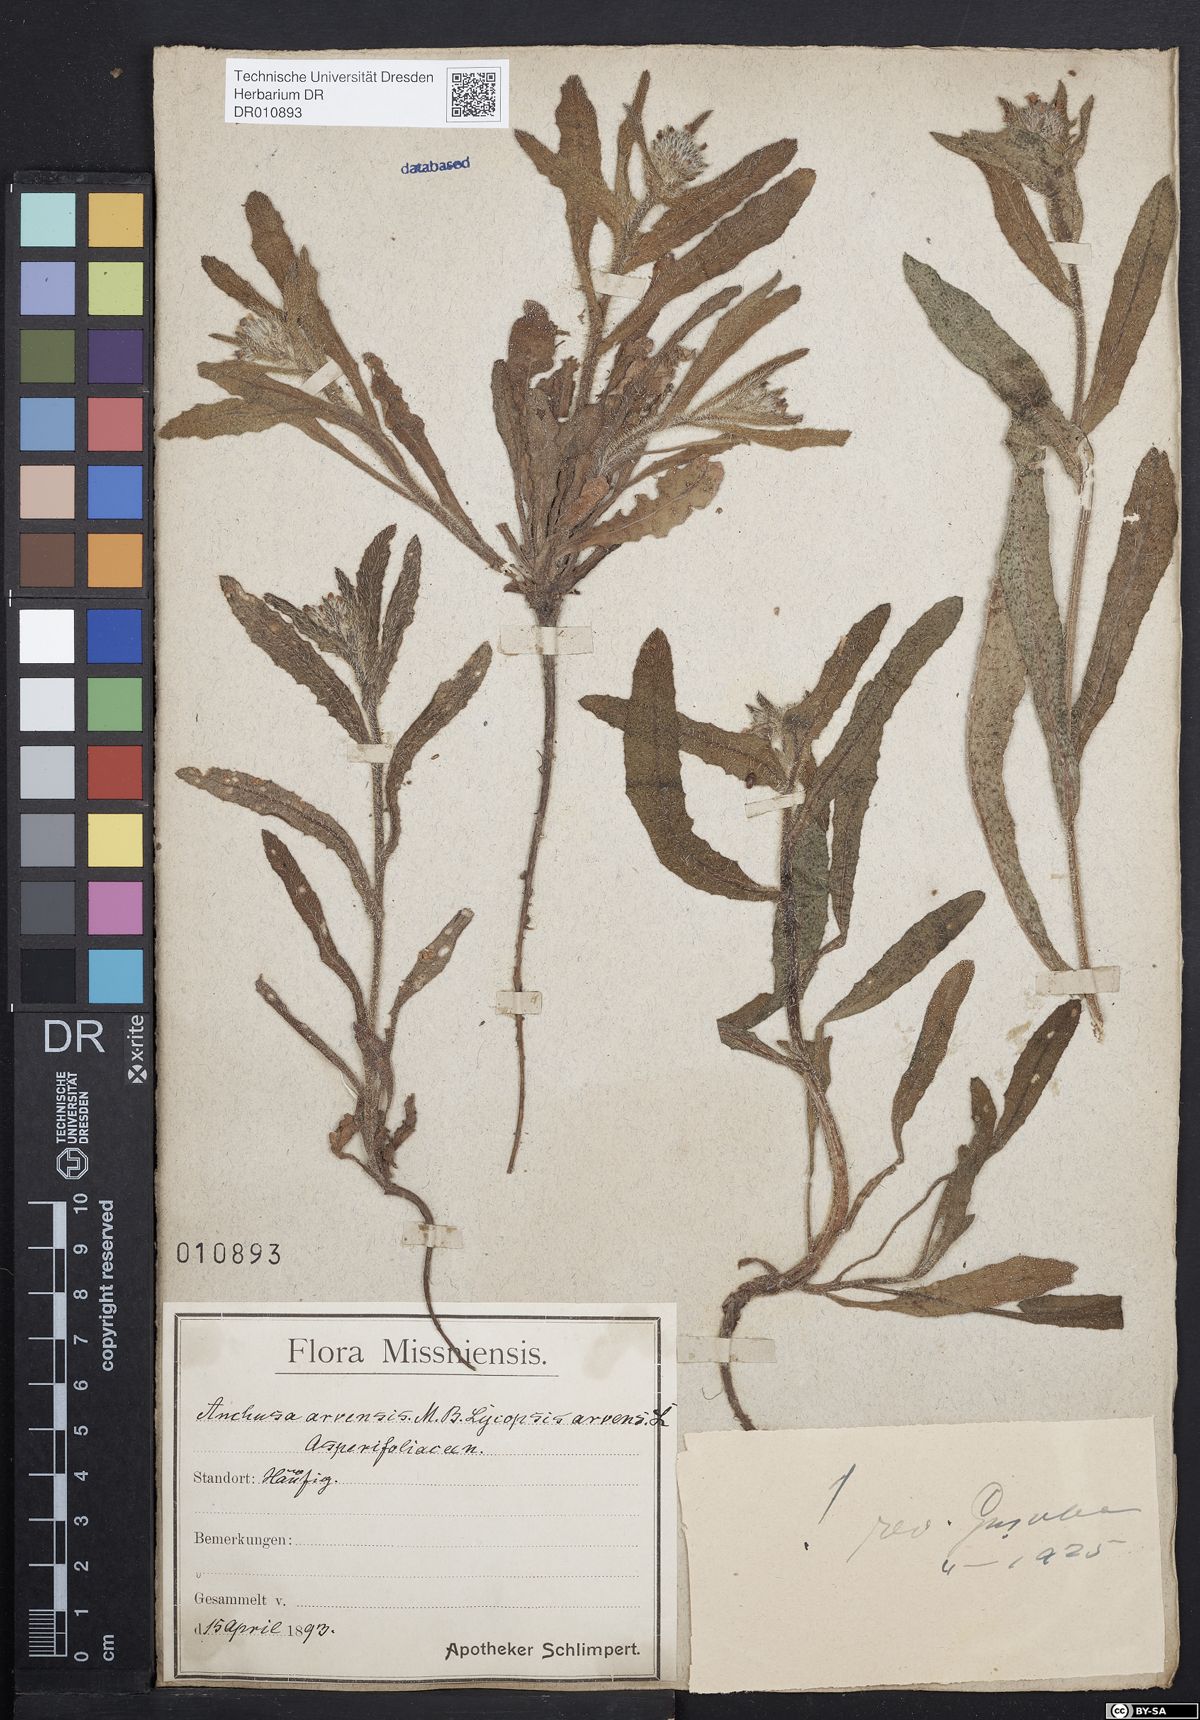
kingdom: Plantae
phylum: Tracheophyta
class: Magnoliopsida
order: Boraginales
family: Boraginaceae
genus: Lycopsis
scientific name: Lycopsis arvensis
